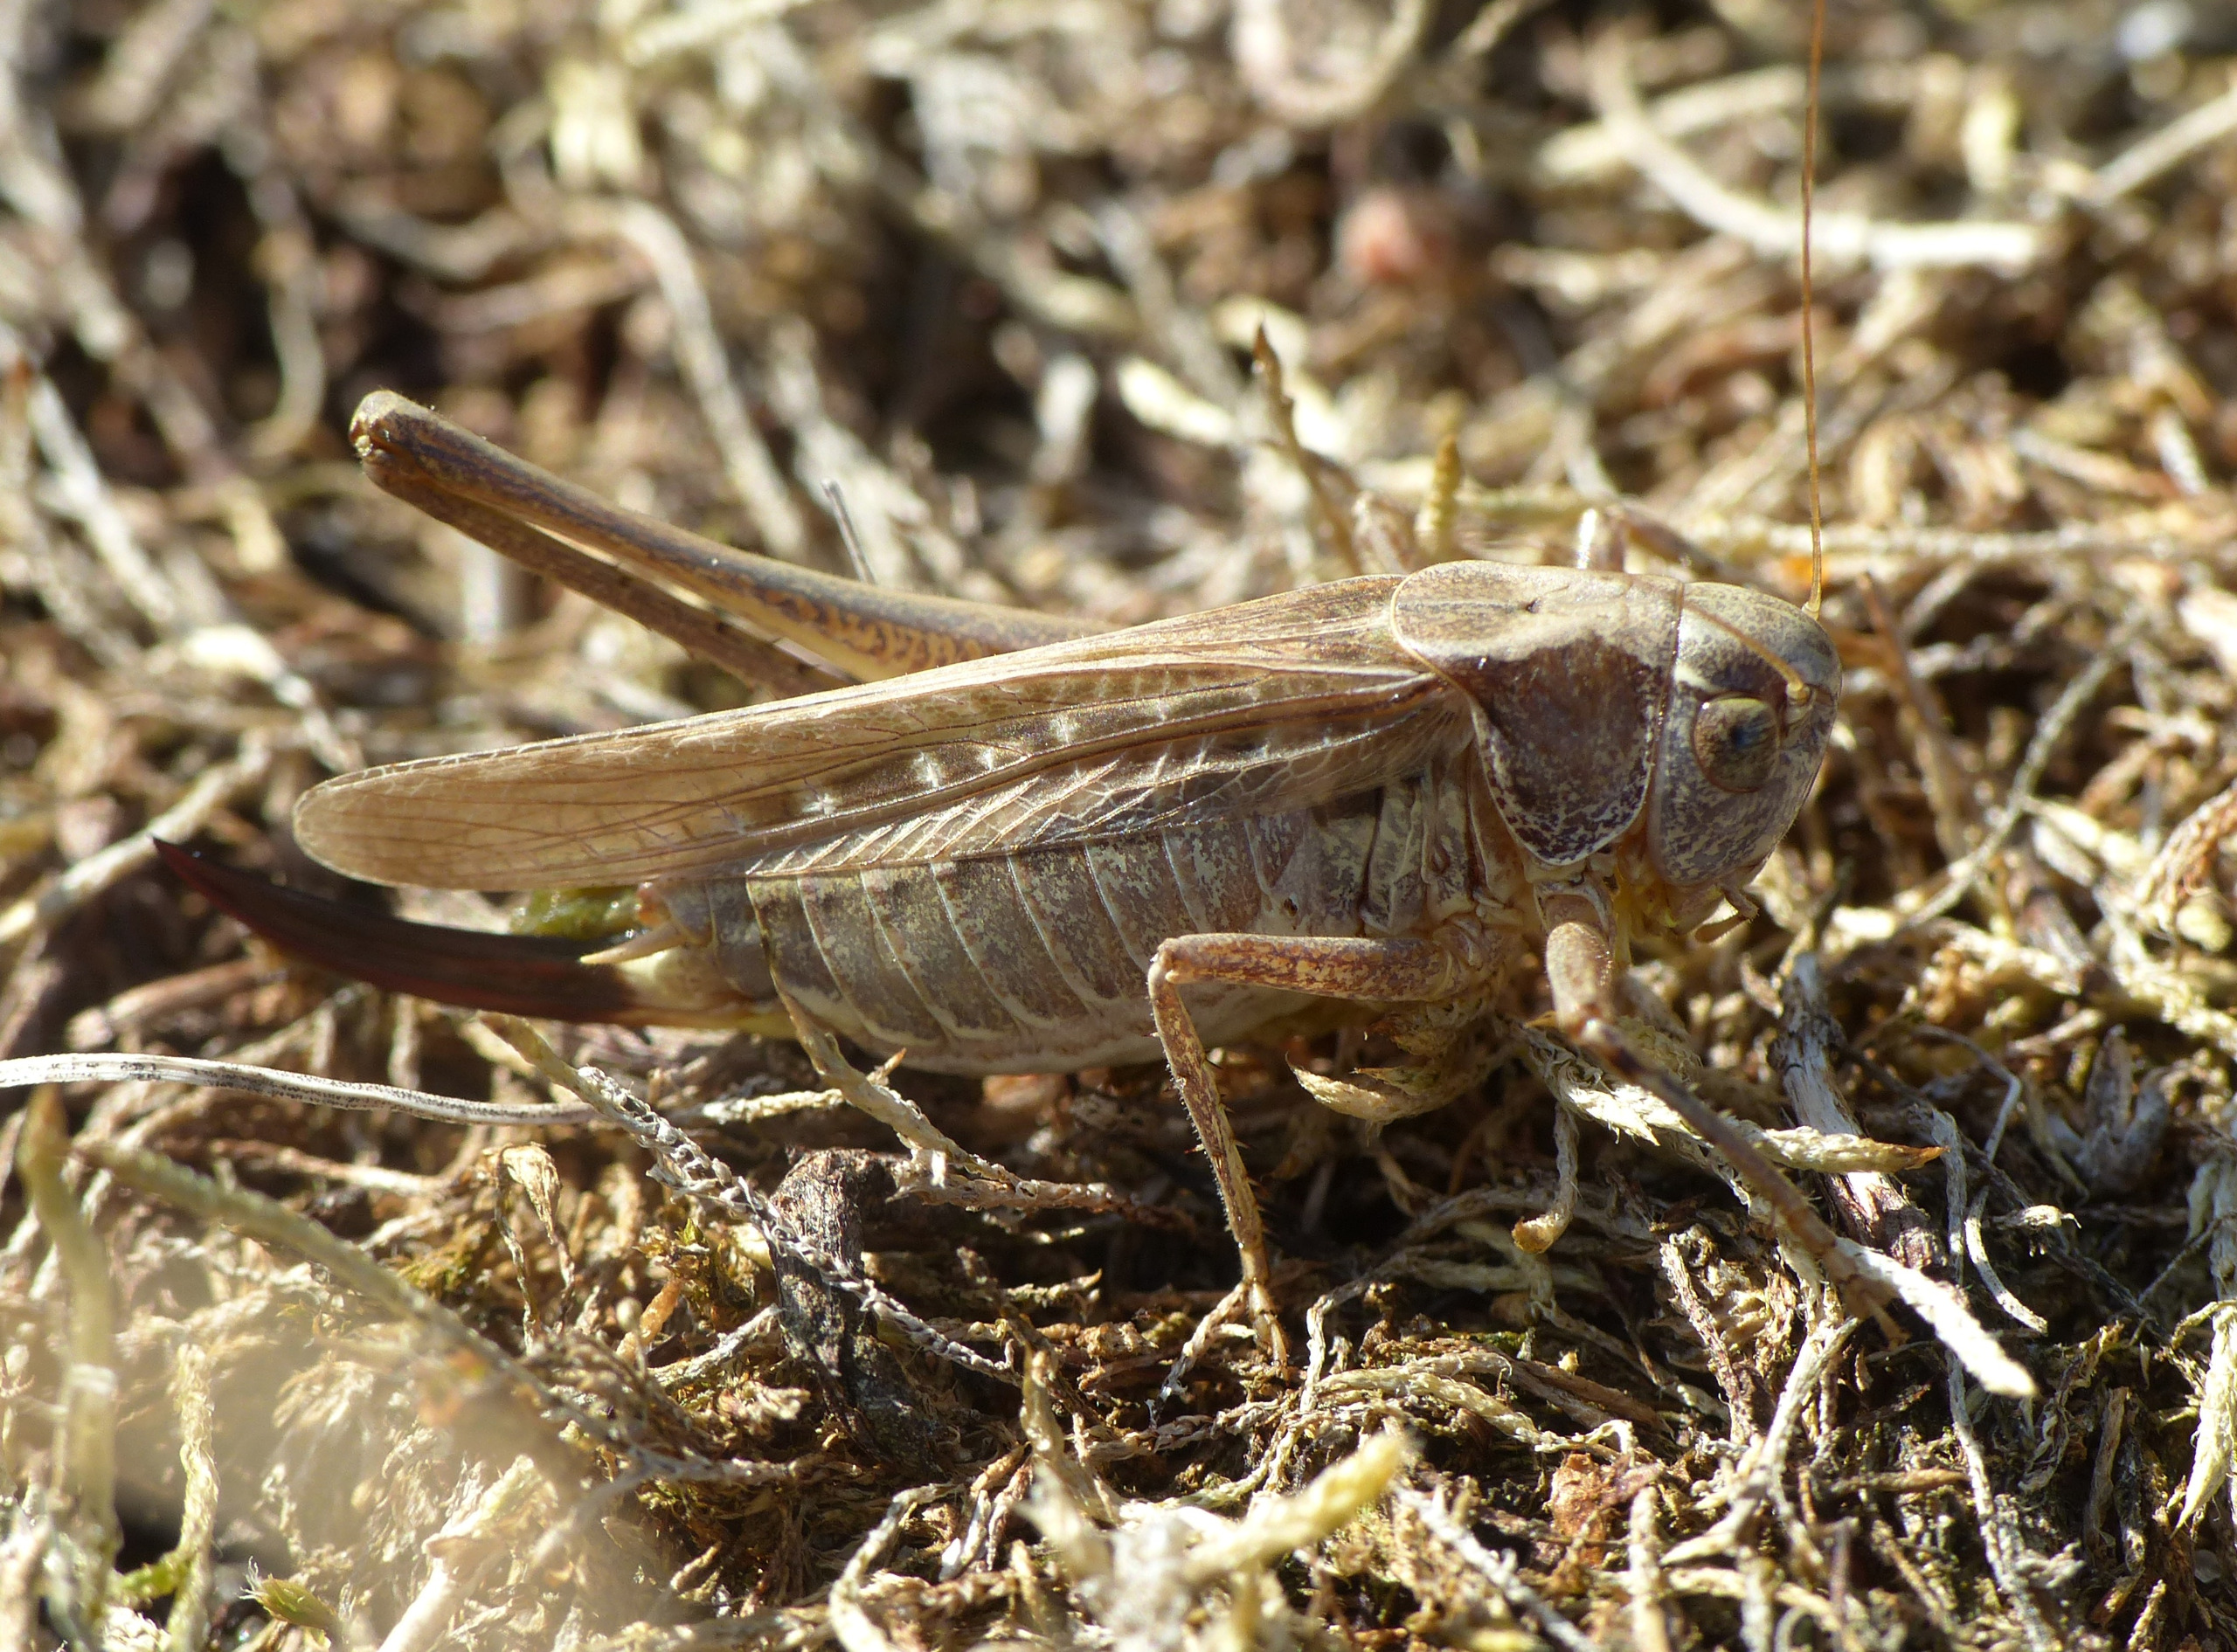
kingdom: Animalia
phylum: Arthropoda
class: Insecta
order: Orthoptera
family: Tettigoniidae
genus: Platycleis
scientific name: Platycleis albopunctata
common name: Sandgræshoppe
